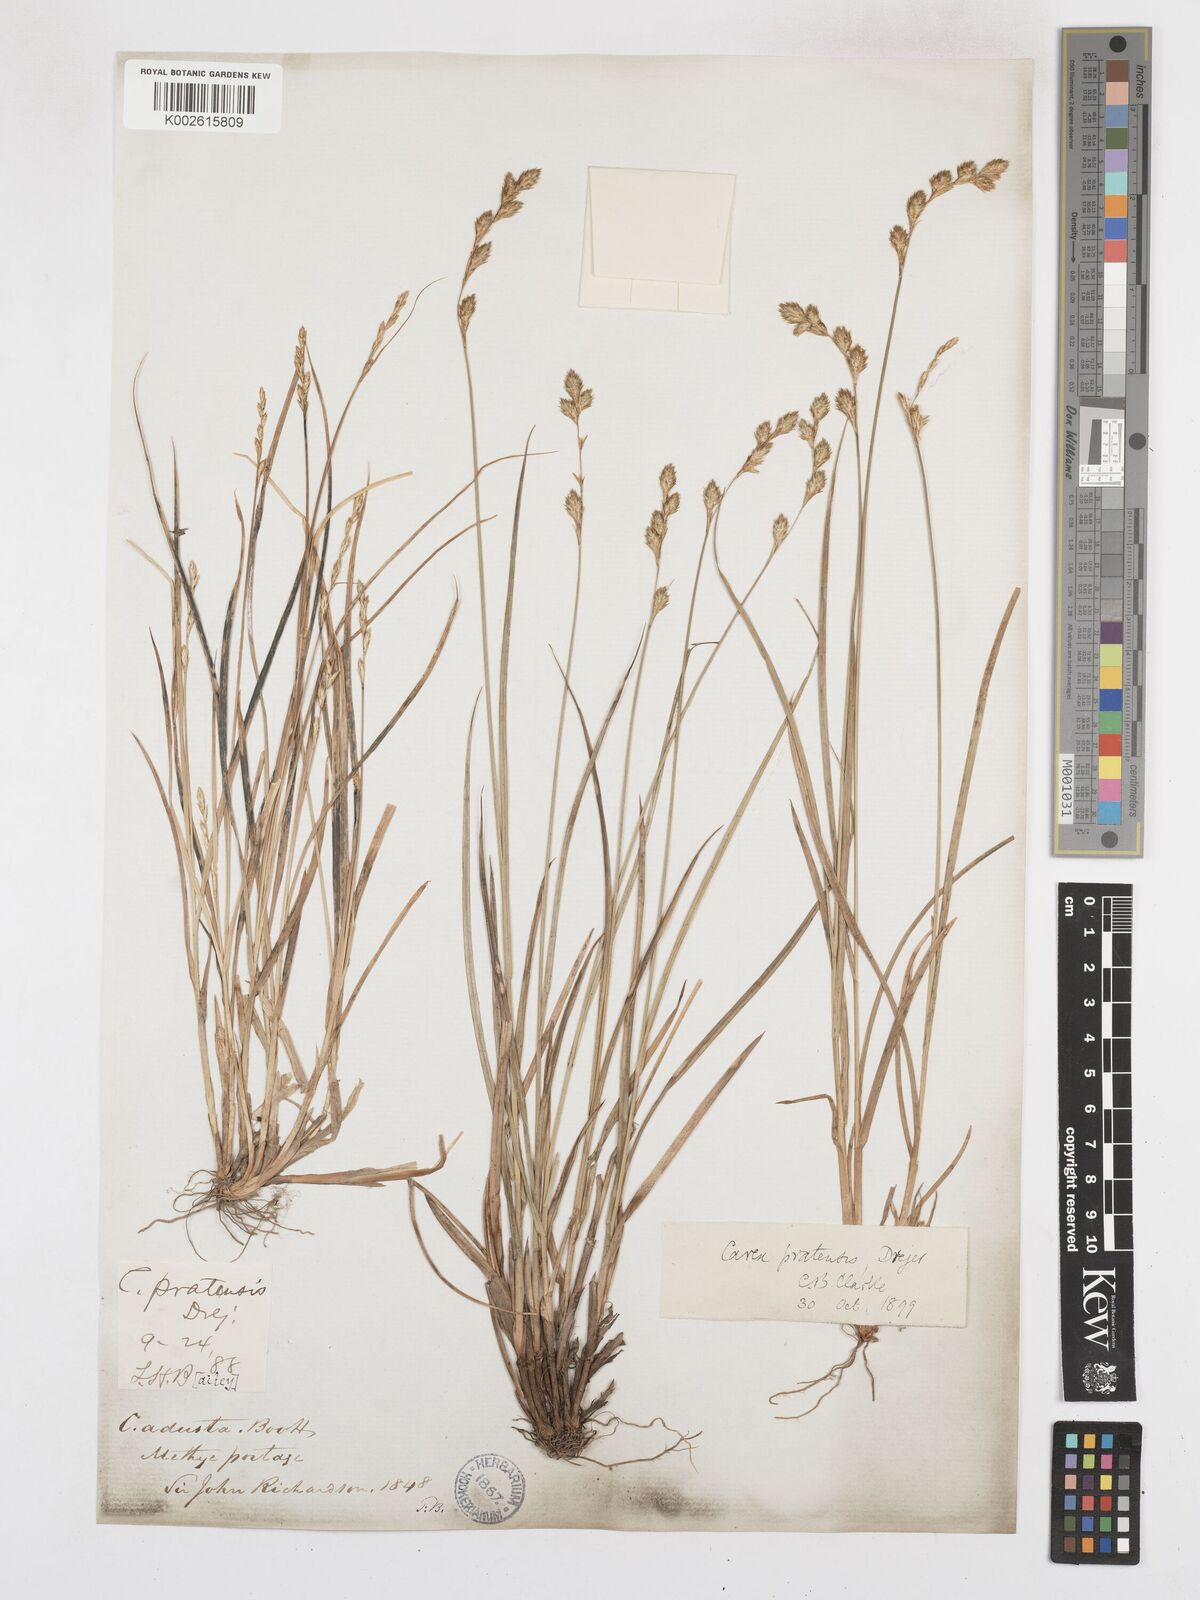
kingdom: Plantae
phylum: Tracheophyta
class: Liliopsida
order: Poales
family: Cyperaceae
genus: Carex
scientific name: Carex praticola
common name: Large-fruited oval sedge
